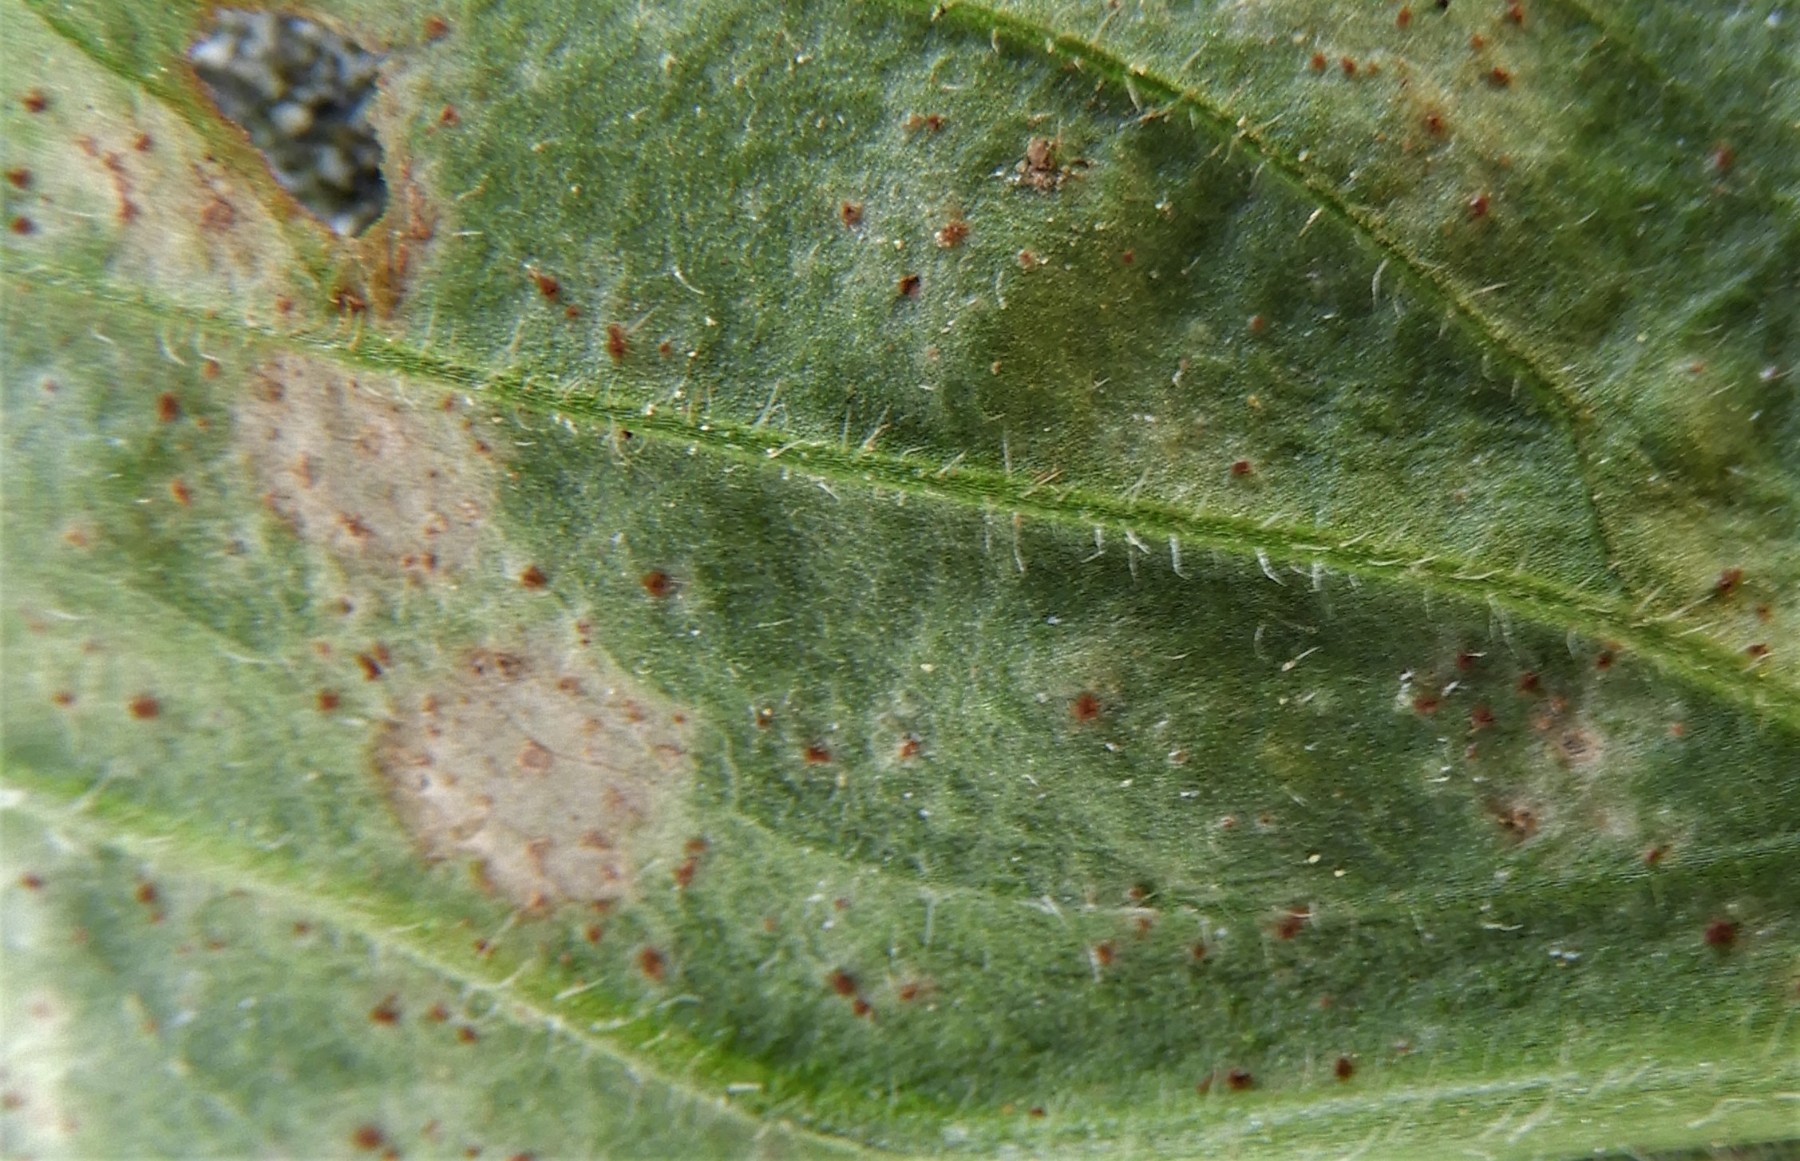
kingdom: Fungi
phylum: Basidiomycota
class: Pucciniomycetes
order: Pucciniales
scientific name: Pucciniales
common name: rustsvampeordenen
